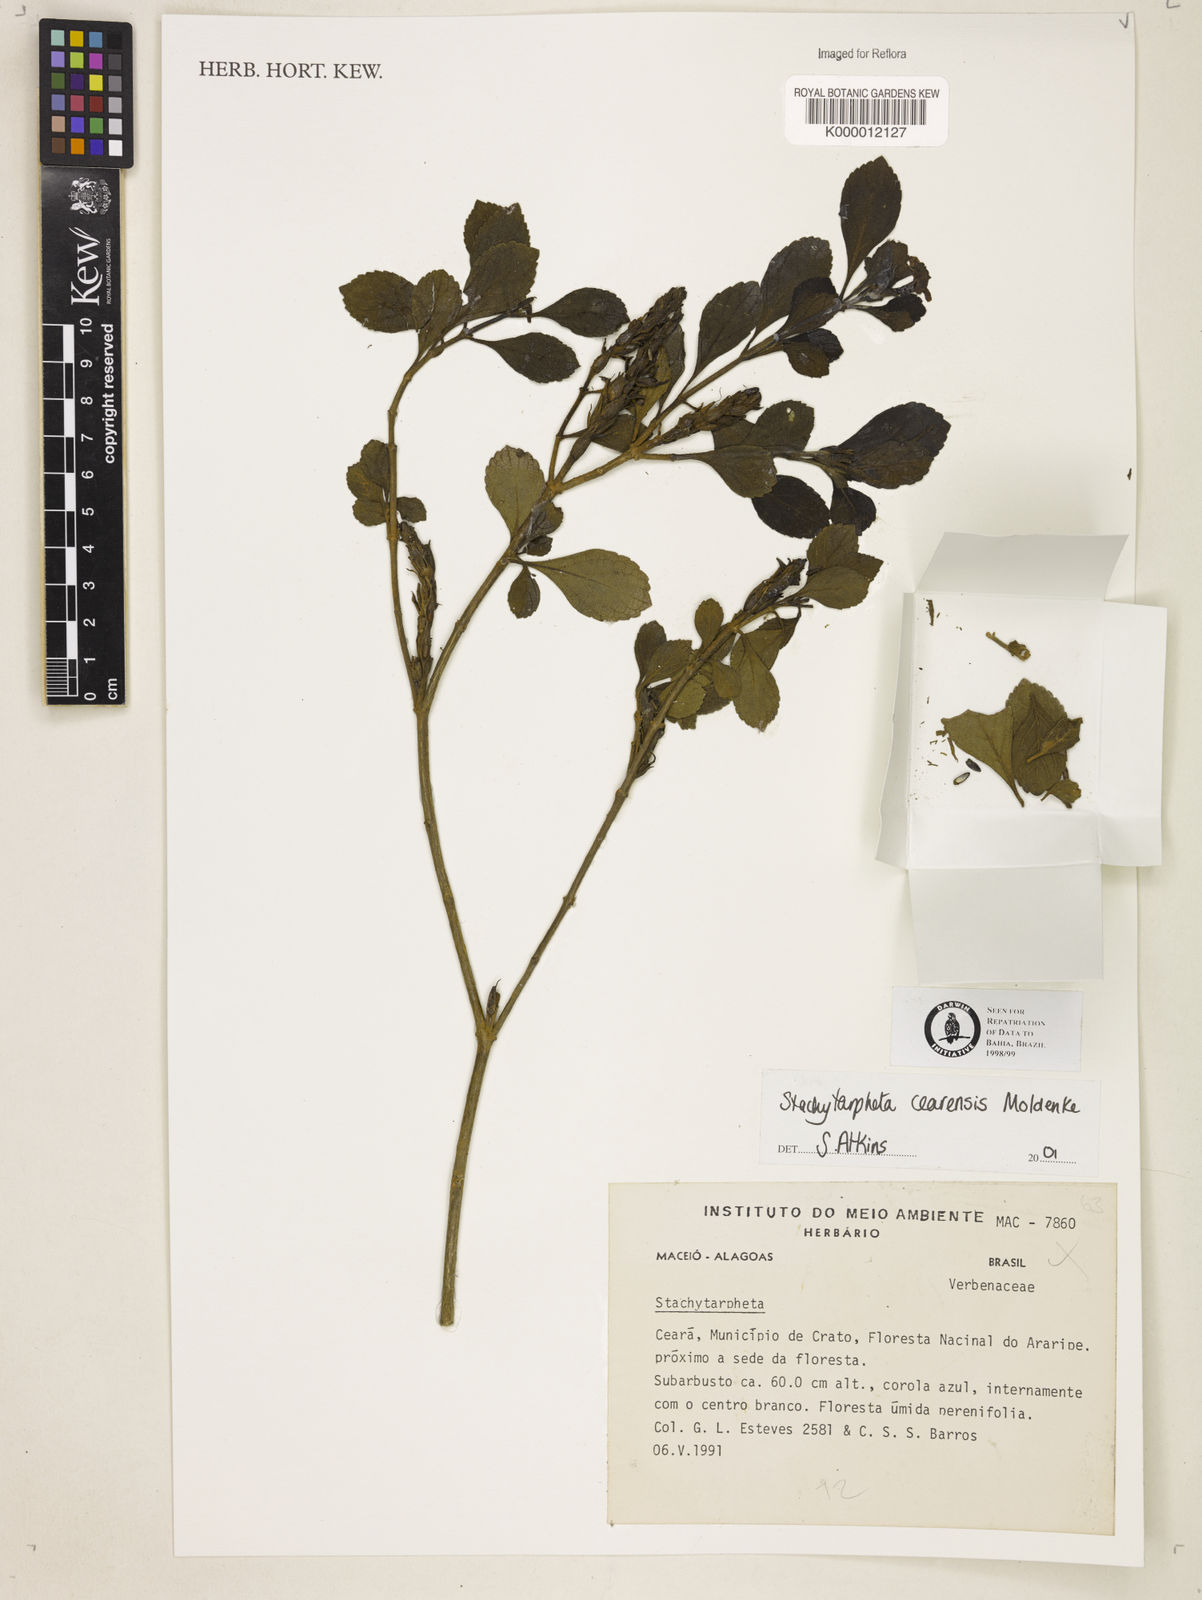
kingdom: Plantae
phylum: Tracheophyta
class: Magnoliopsida
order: Lamiales
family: Verbenaceae
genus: Stachytarpheta
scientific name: Stachytarpheta
